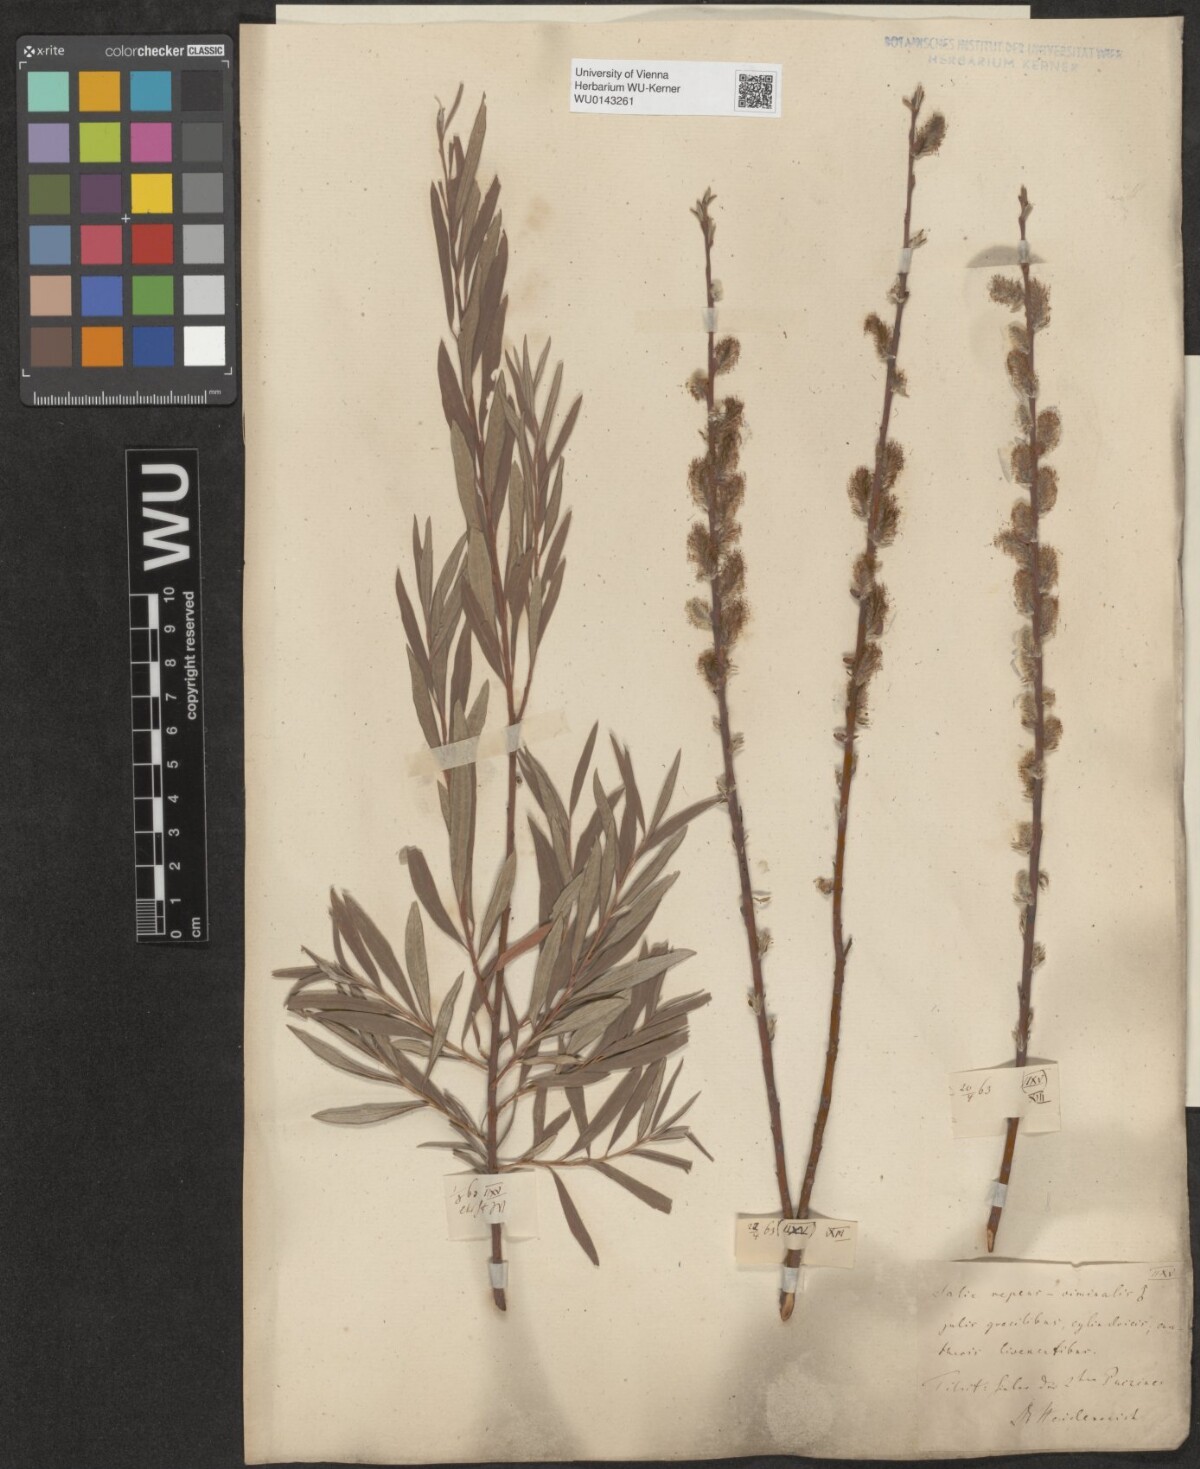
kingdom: Plantae
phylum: Tracheophyta
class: Magnoliopsida
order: Malpighiales
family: Salicaceae
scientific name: Salicaceae
